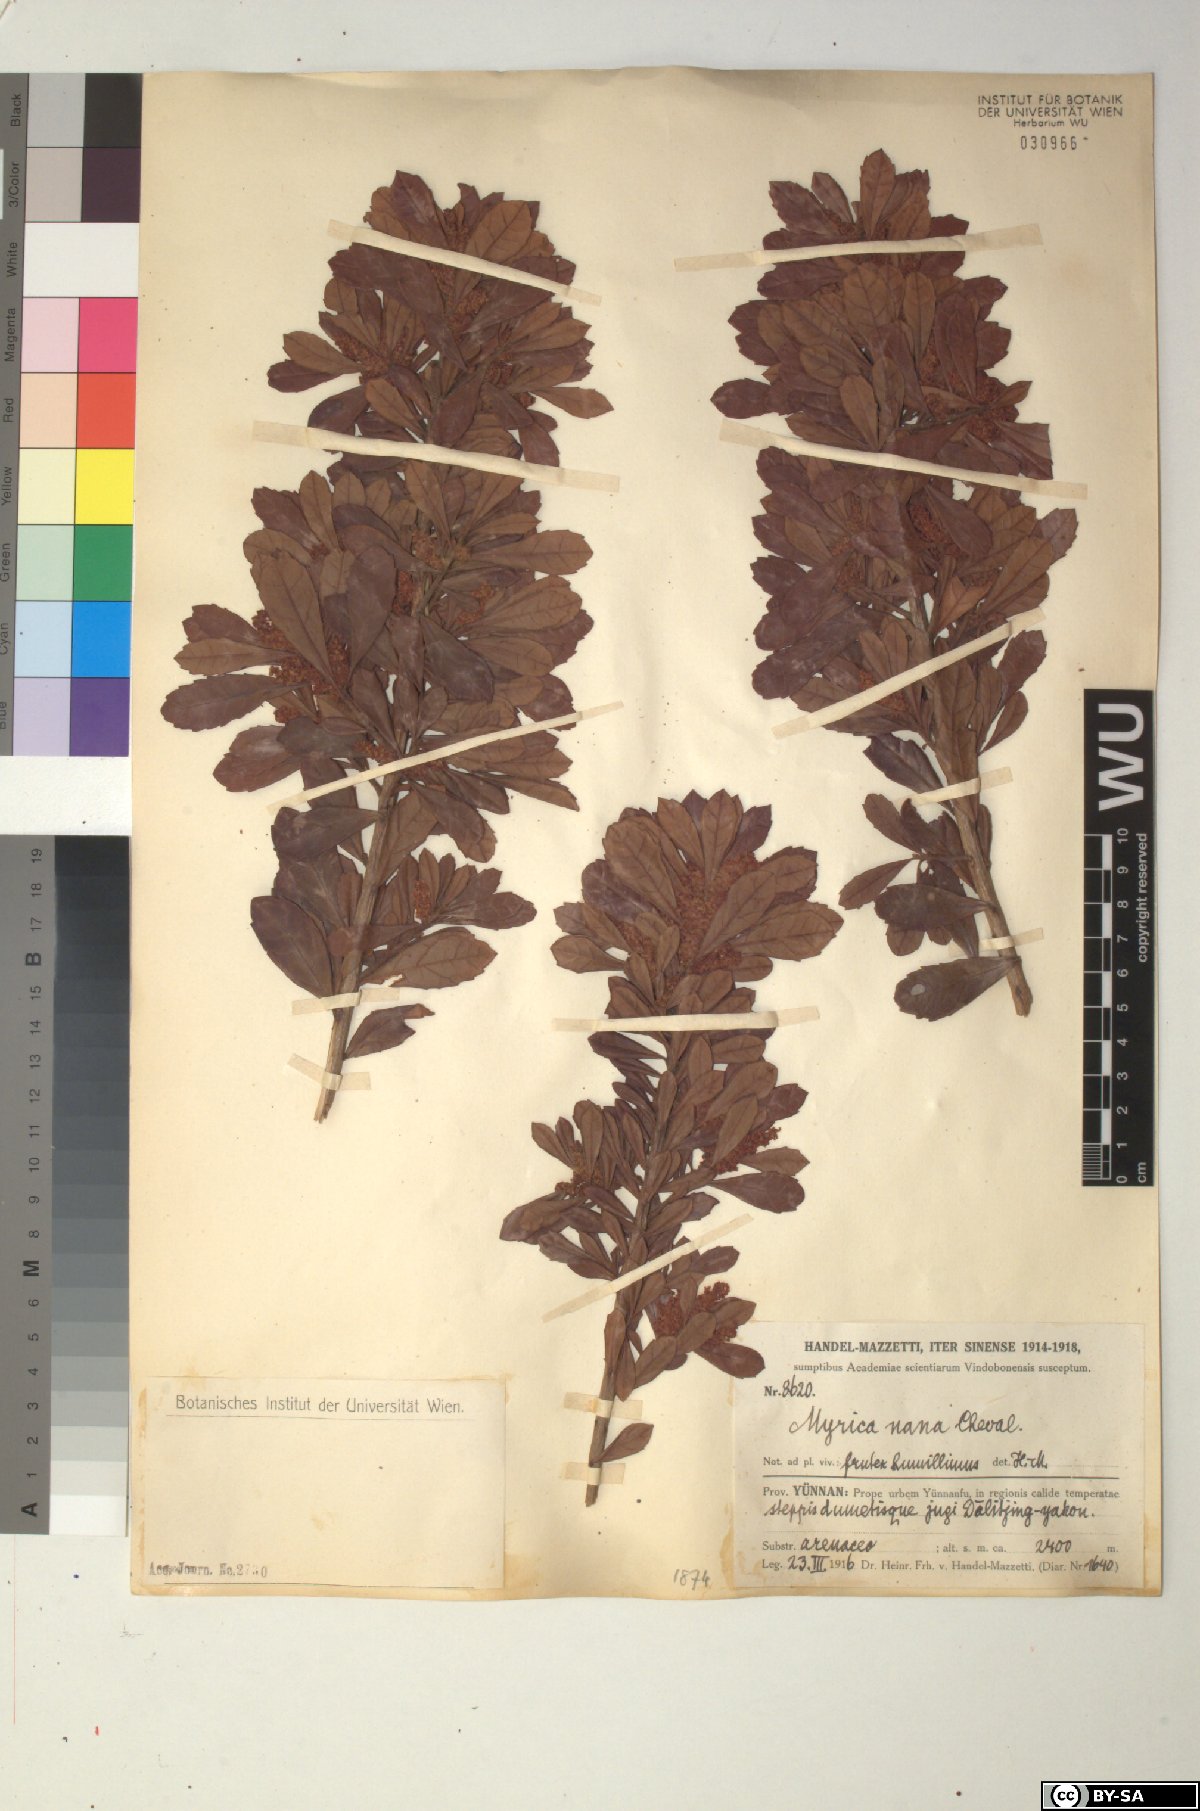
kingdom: Plantae
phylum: Tracheophyta
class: Magnoliopsida
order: Fagales
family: Myricaceae
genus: Morella
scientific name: Morella nana
